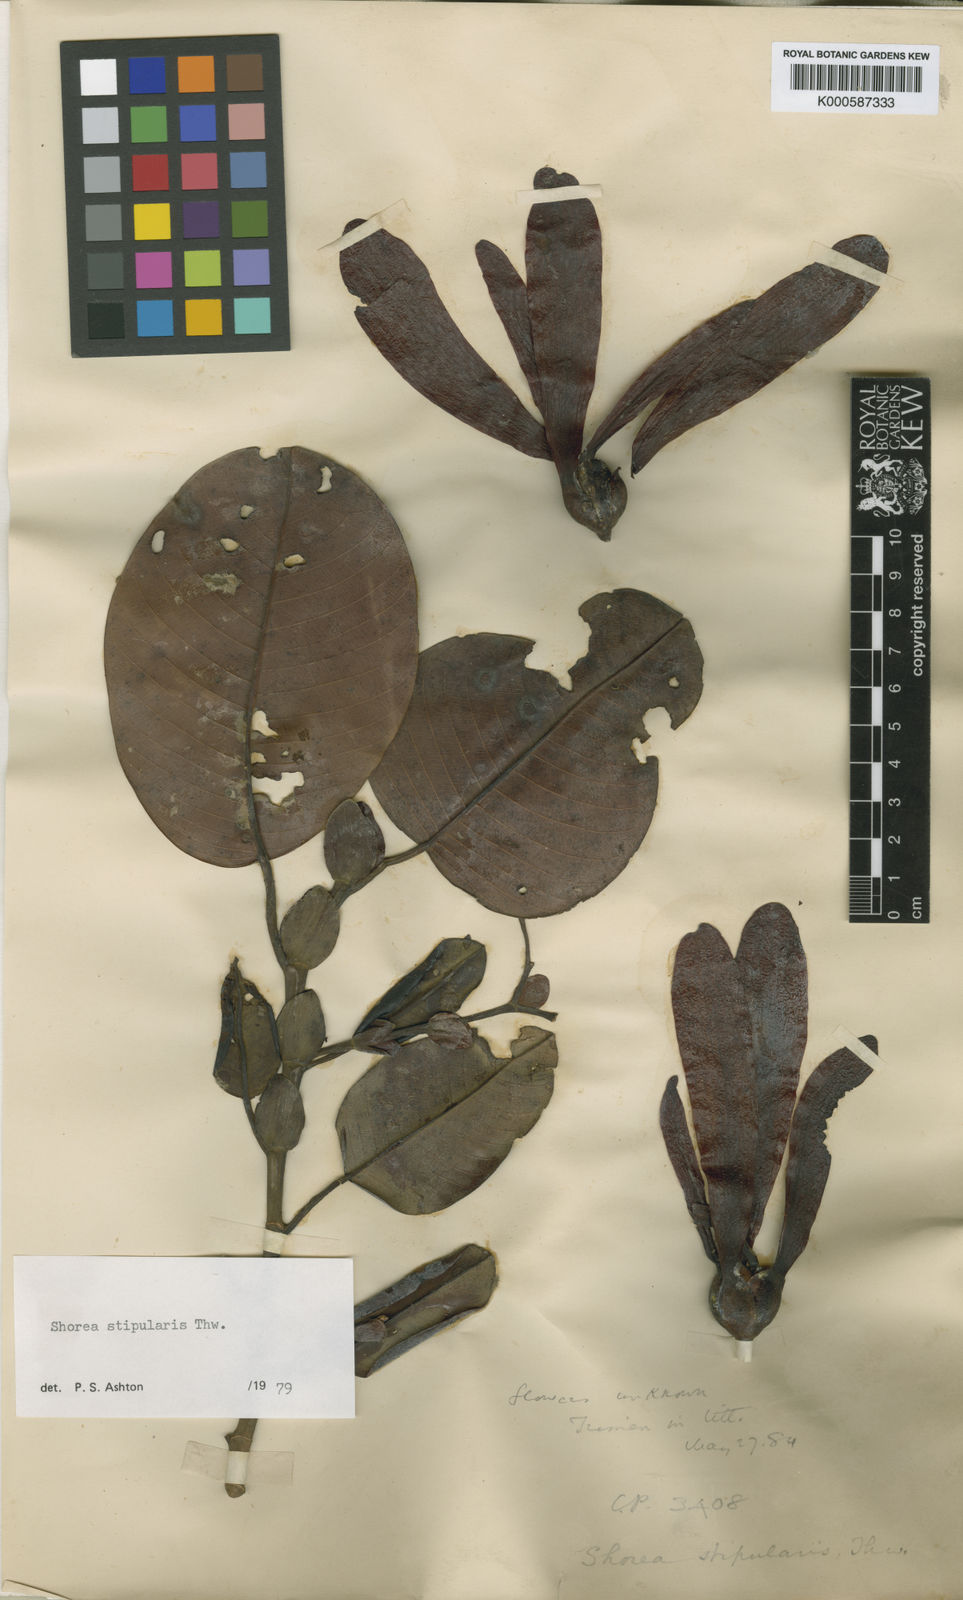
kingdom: Plantae
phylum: Tracheophyta
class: Magnoliopsida
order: Malvales
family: Dipterocarpaceae
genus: Anthoshorea
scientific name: Anthoshorea stipularis
